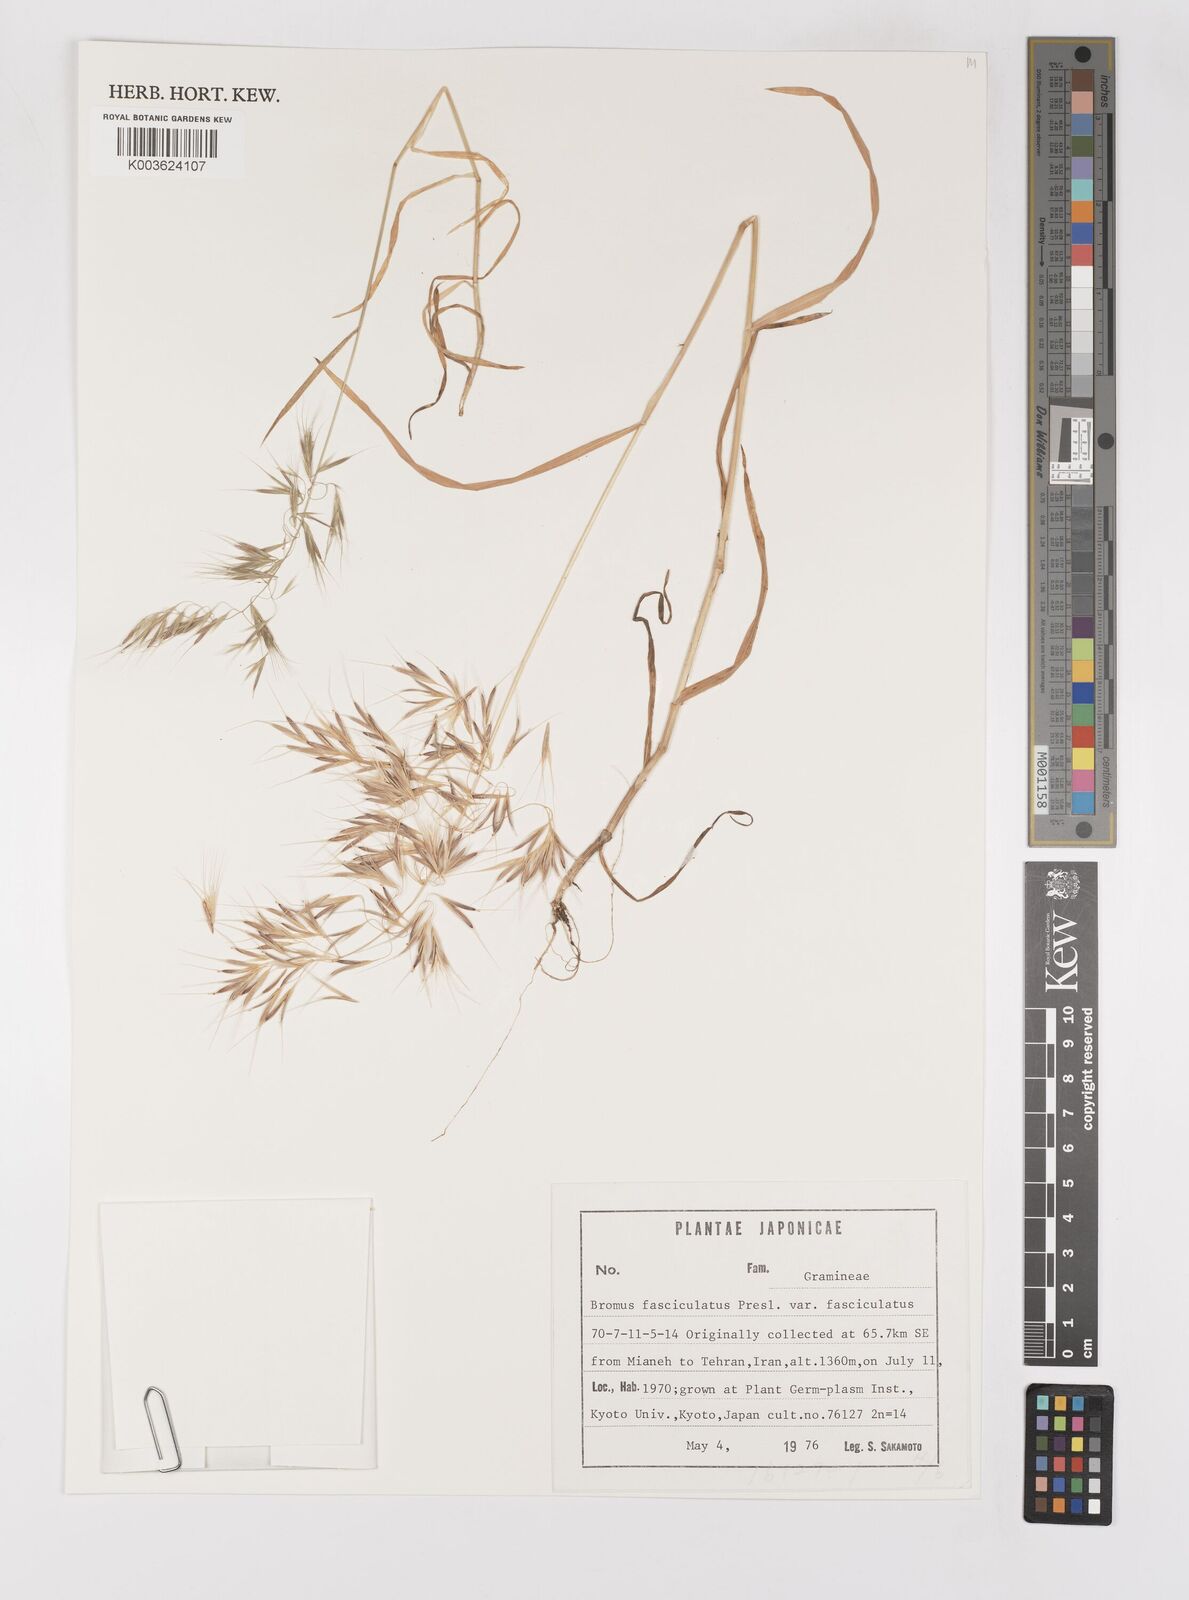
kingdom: Plantae
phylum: Tracheophyta
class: Liliopsida
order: Poales
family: Poaceae
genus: Bromus
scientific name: Bromus fasciculatus
